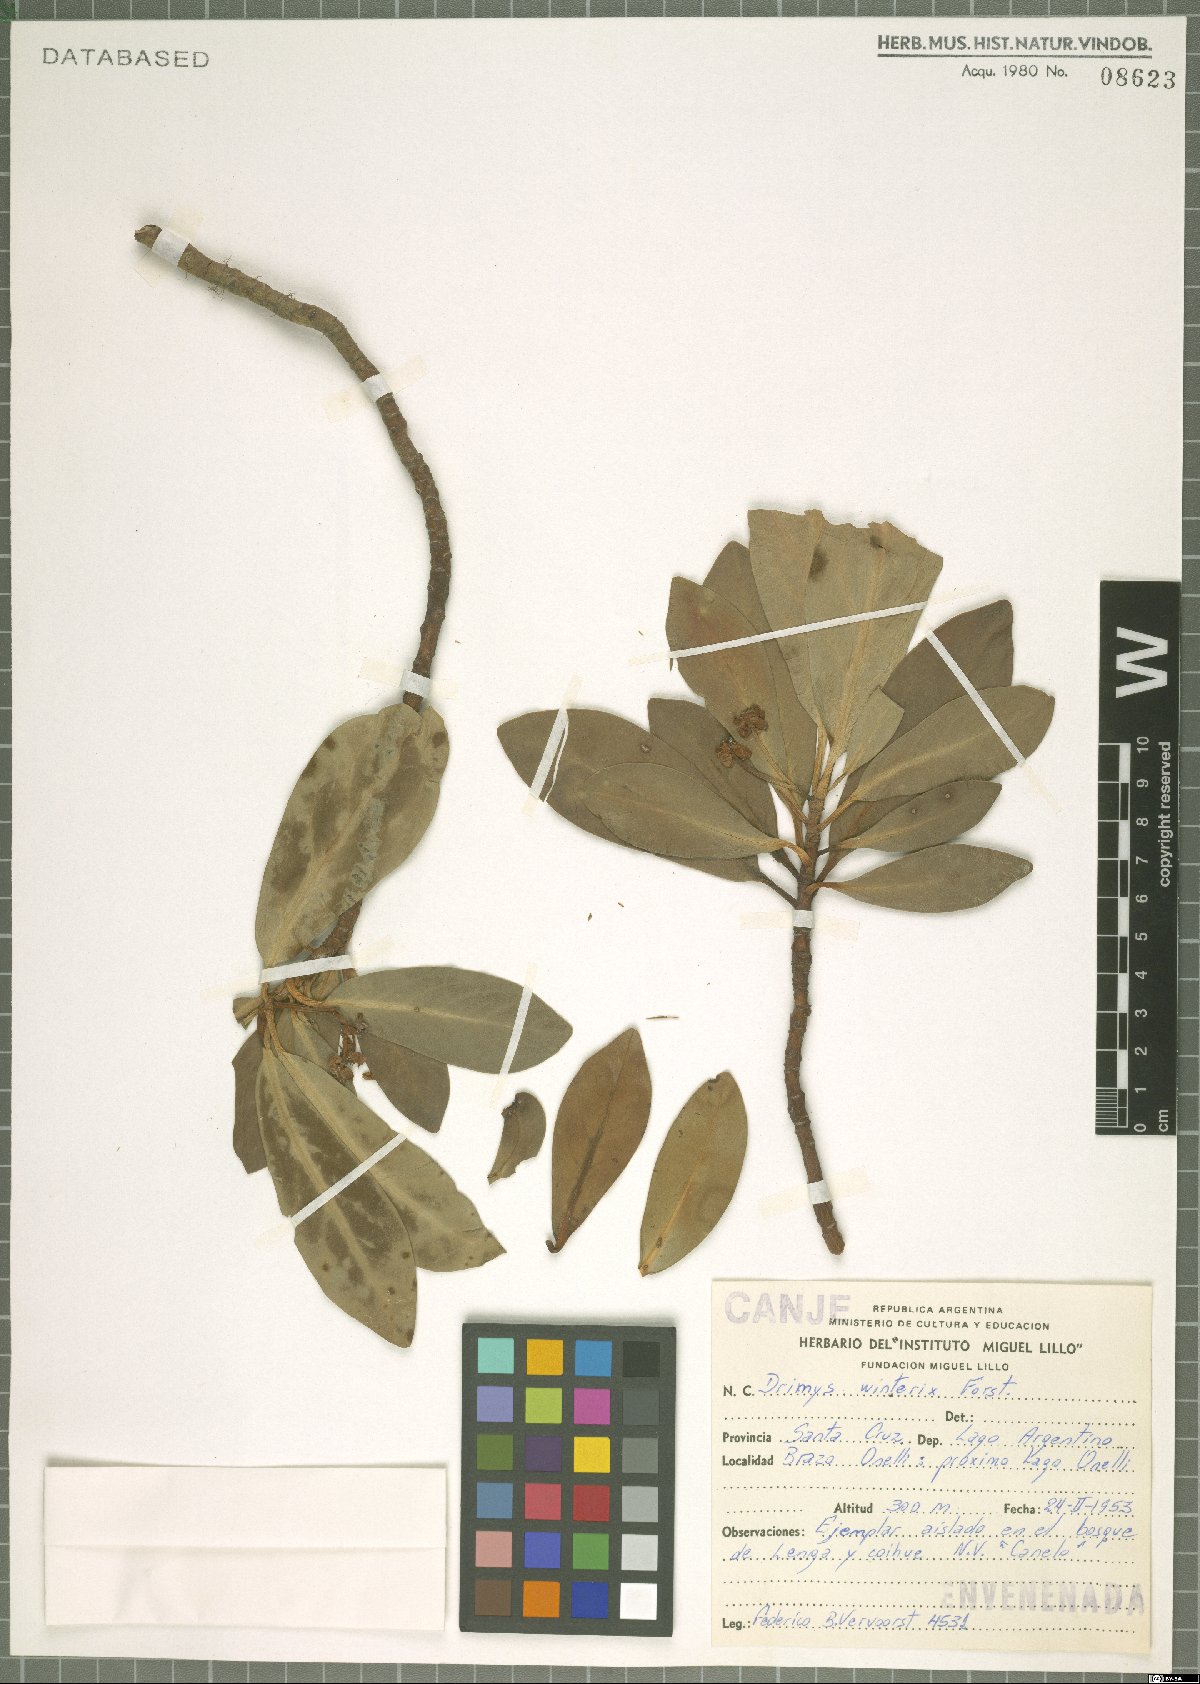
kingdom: Plantae
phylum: Tracheophyta
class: Magnoliopsida
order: Canellales
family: Winteraceae
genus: Drimys
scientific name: Drimys winteri
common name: Winter's-bark
